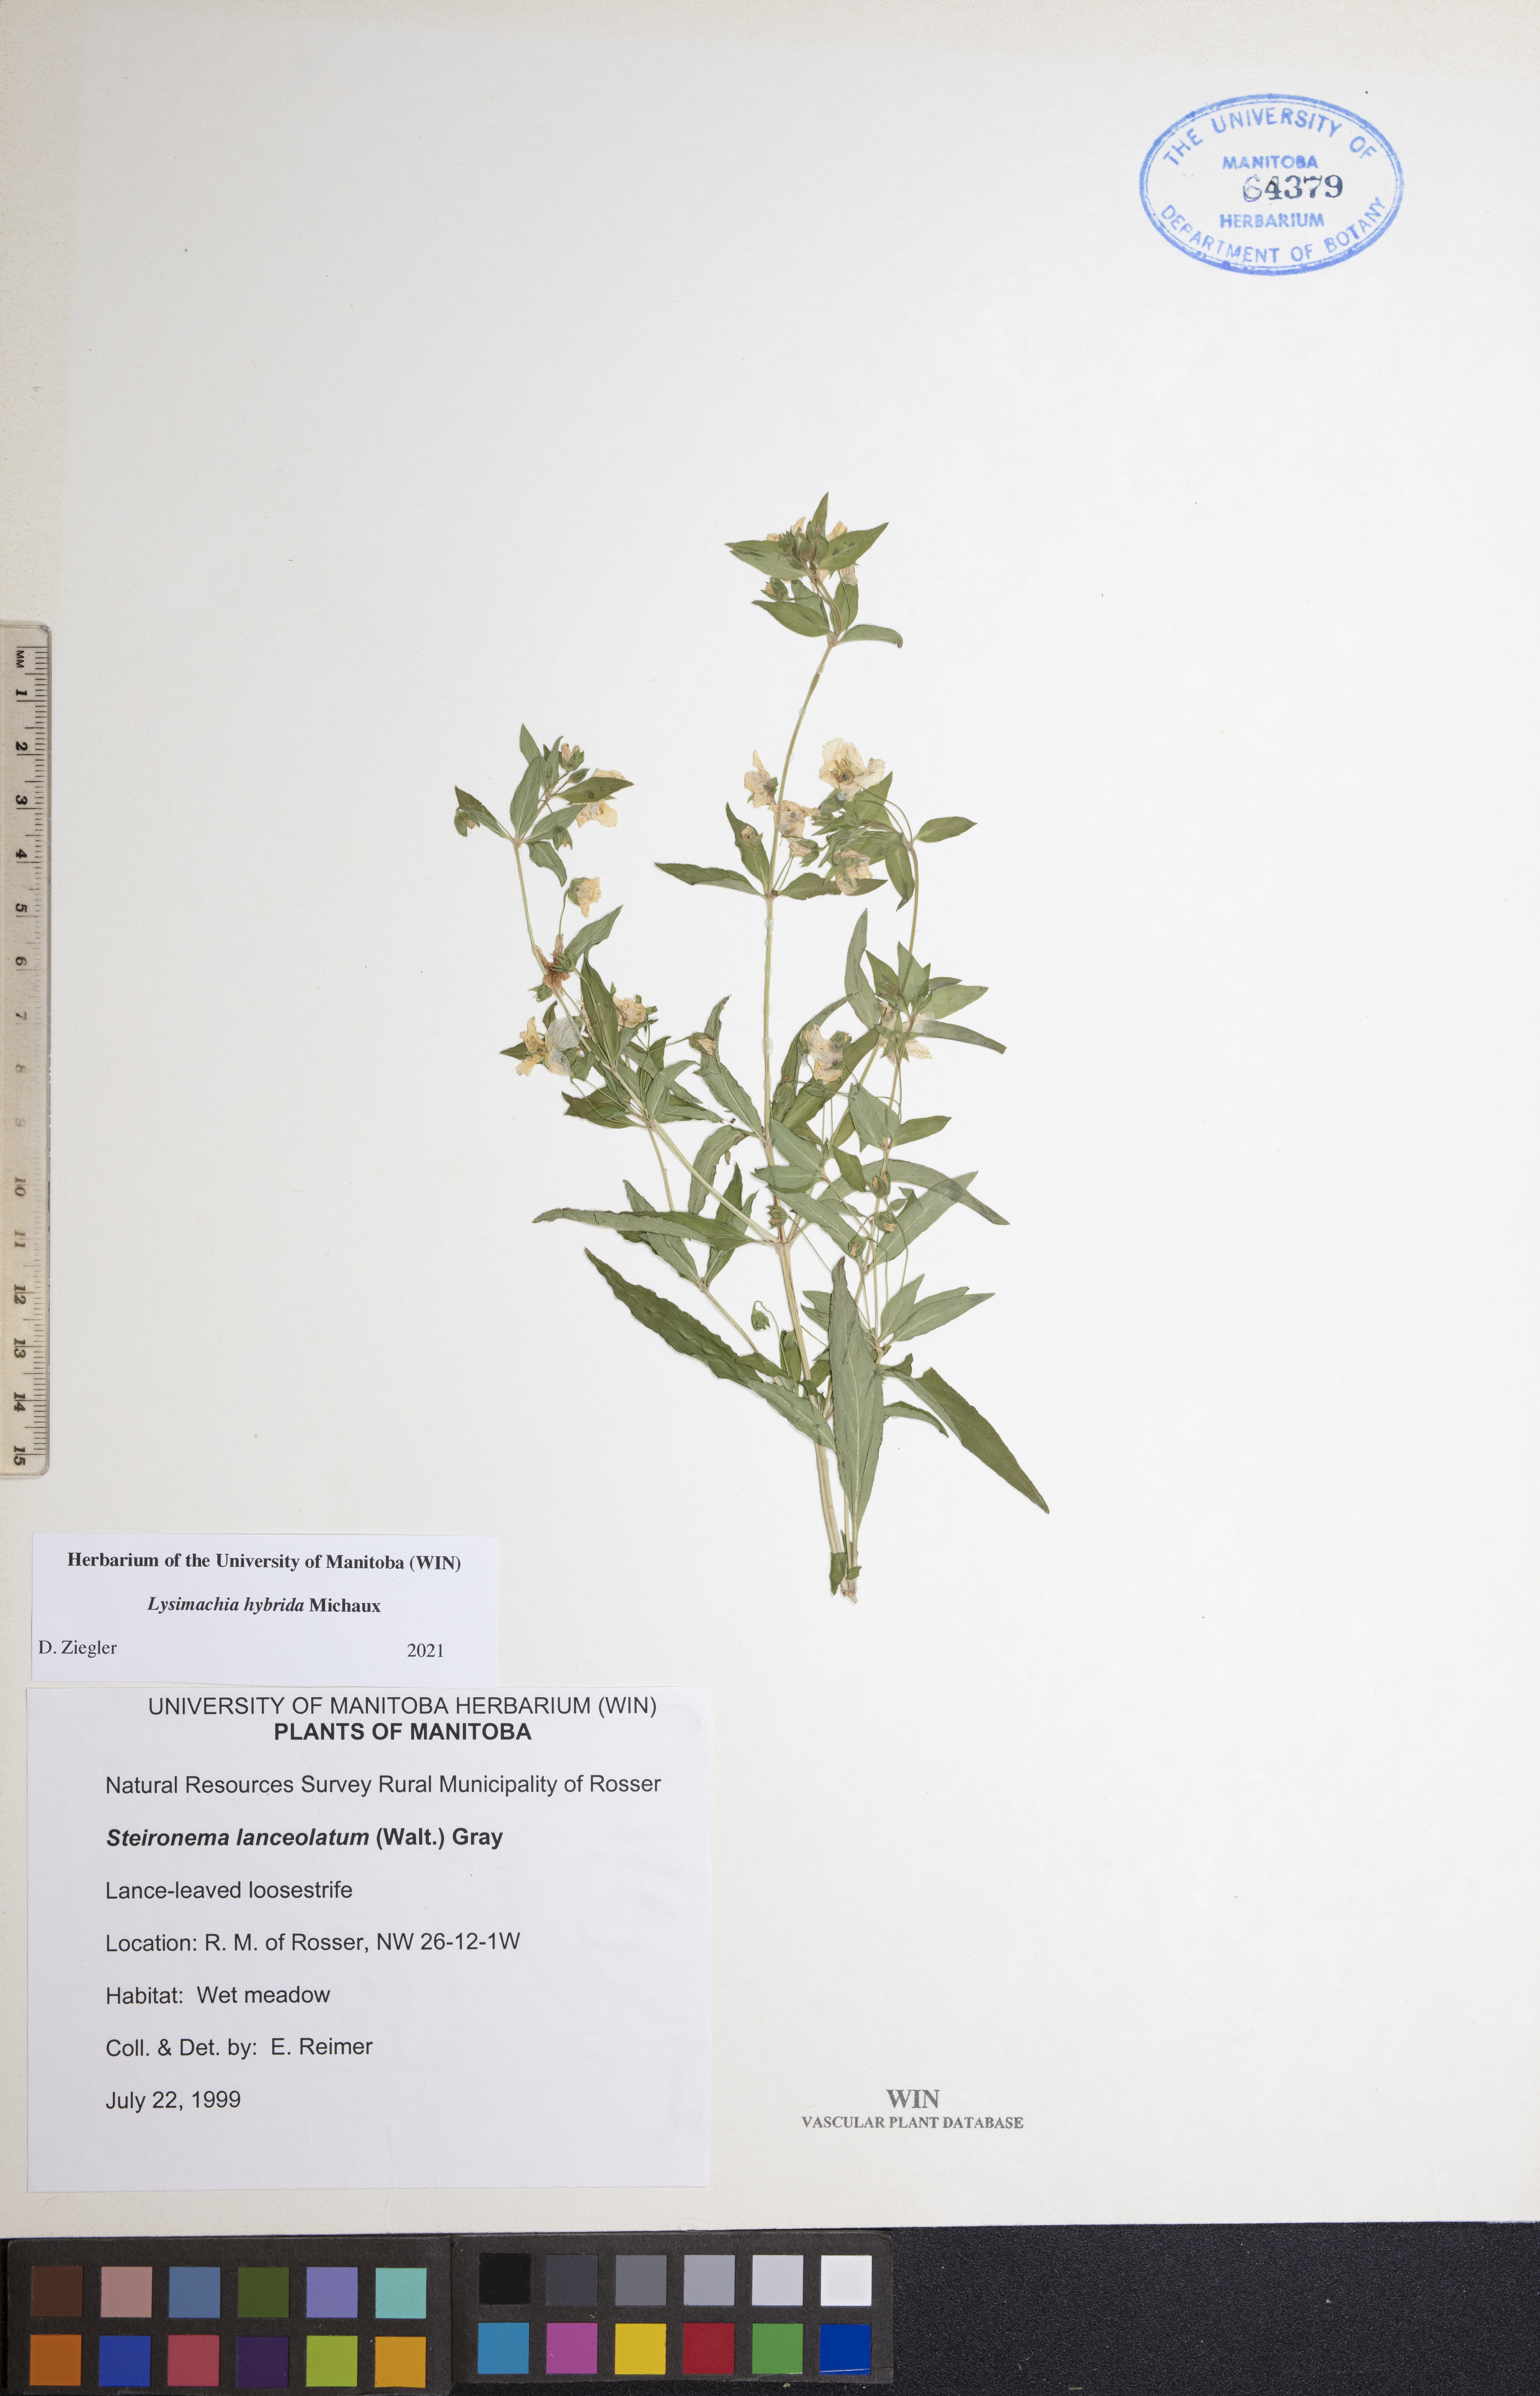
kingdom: Plantae
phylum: Tracheophyta
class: Magnoliopsida
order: Ericales
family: Primulaceae
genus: Lysimachia
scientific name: Lysimachia hybrida
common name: Lowland loosestrife
